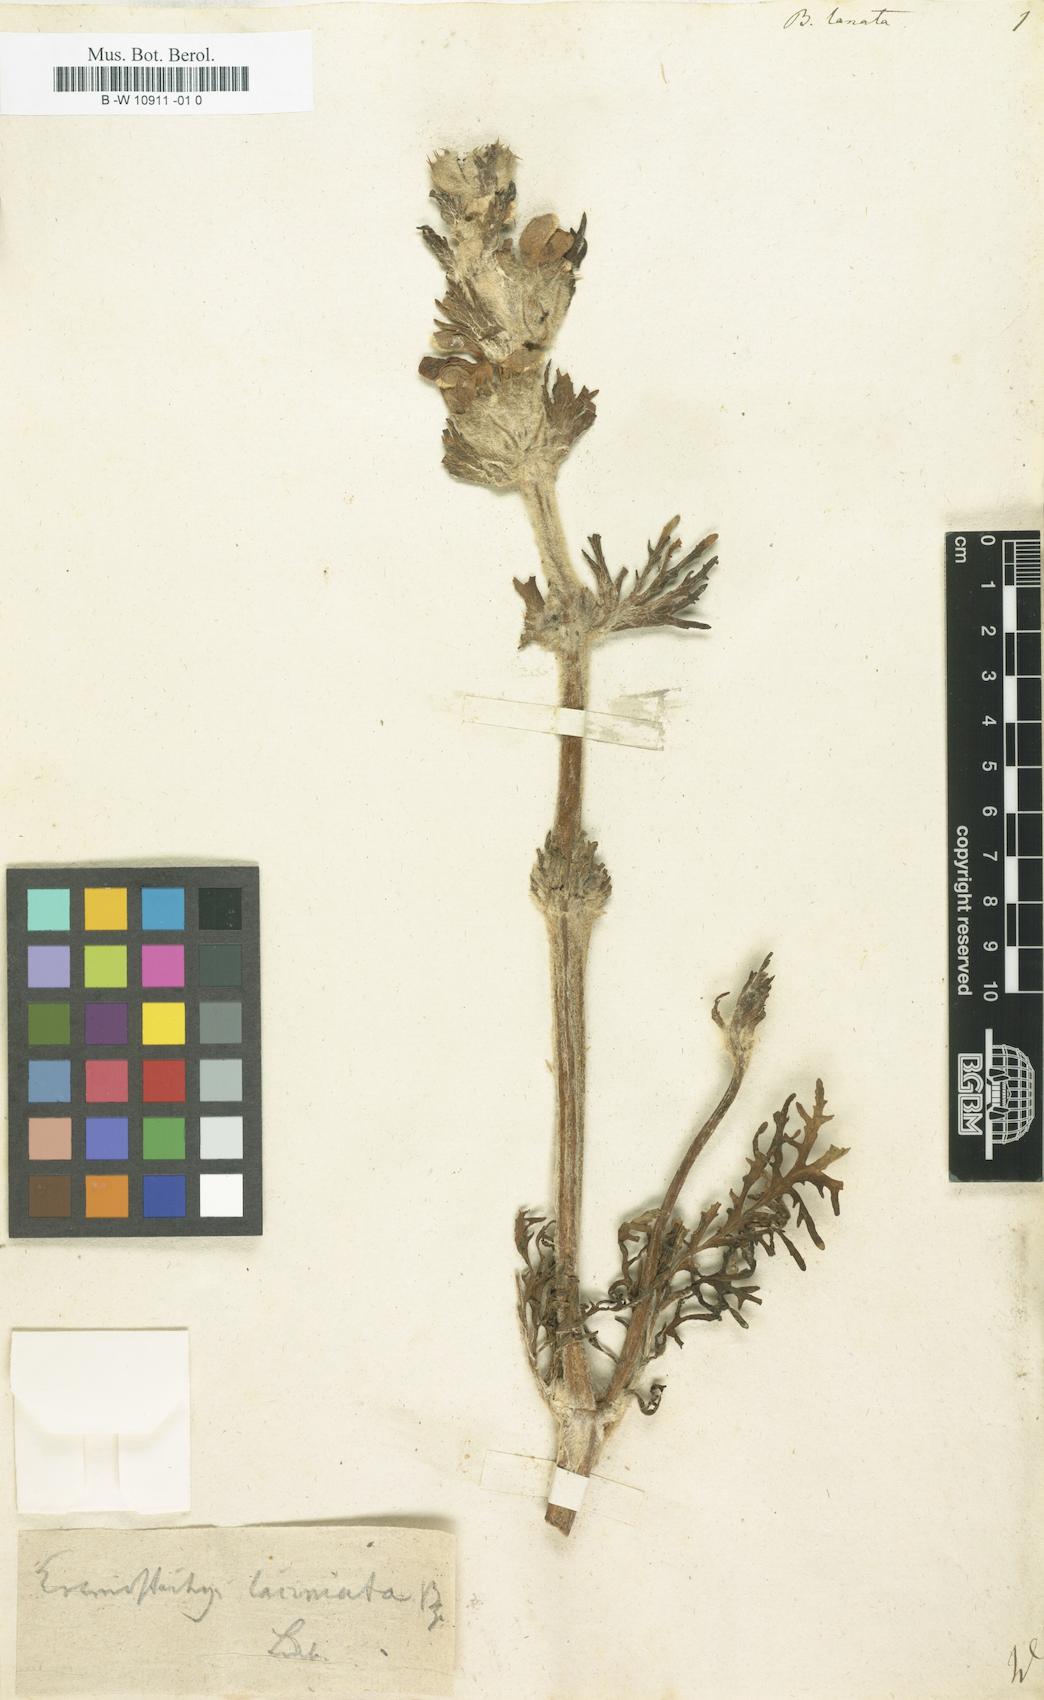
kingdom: Plantae
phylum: Tracheophyta
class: Magnoliopsida
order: Lamiales
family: Lamiaceae
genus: Ballota
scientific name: Ballota lanata
